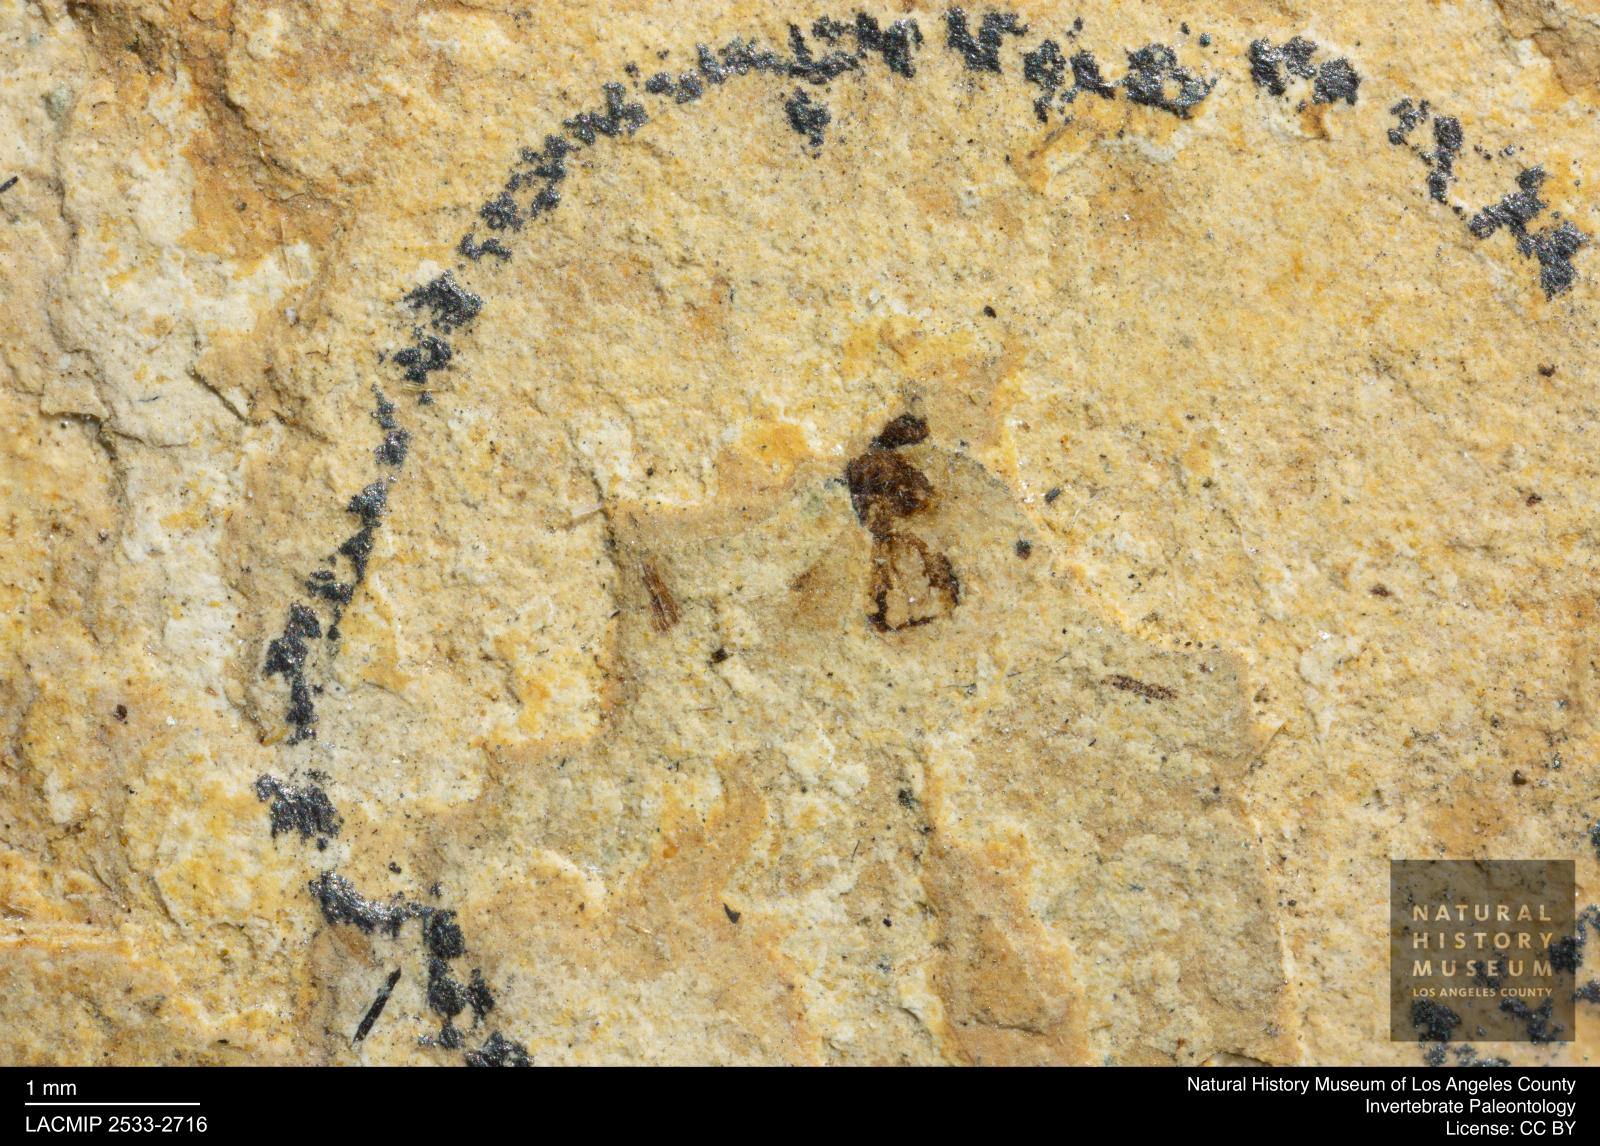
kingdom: Animalia
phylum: Arthropoda
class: Insecta
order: Hymenoptera
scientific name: Hymenoptera
